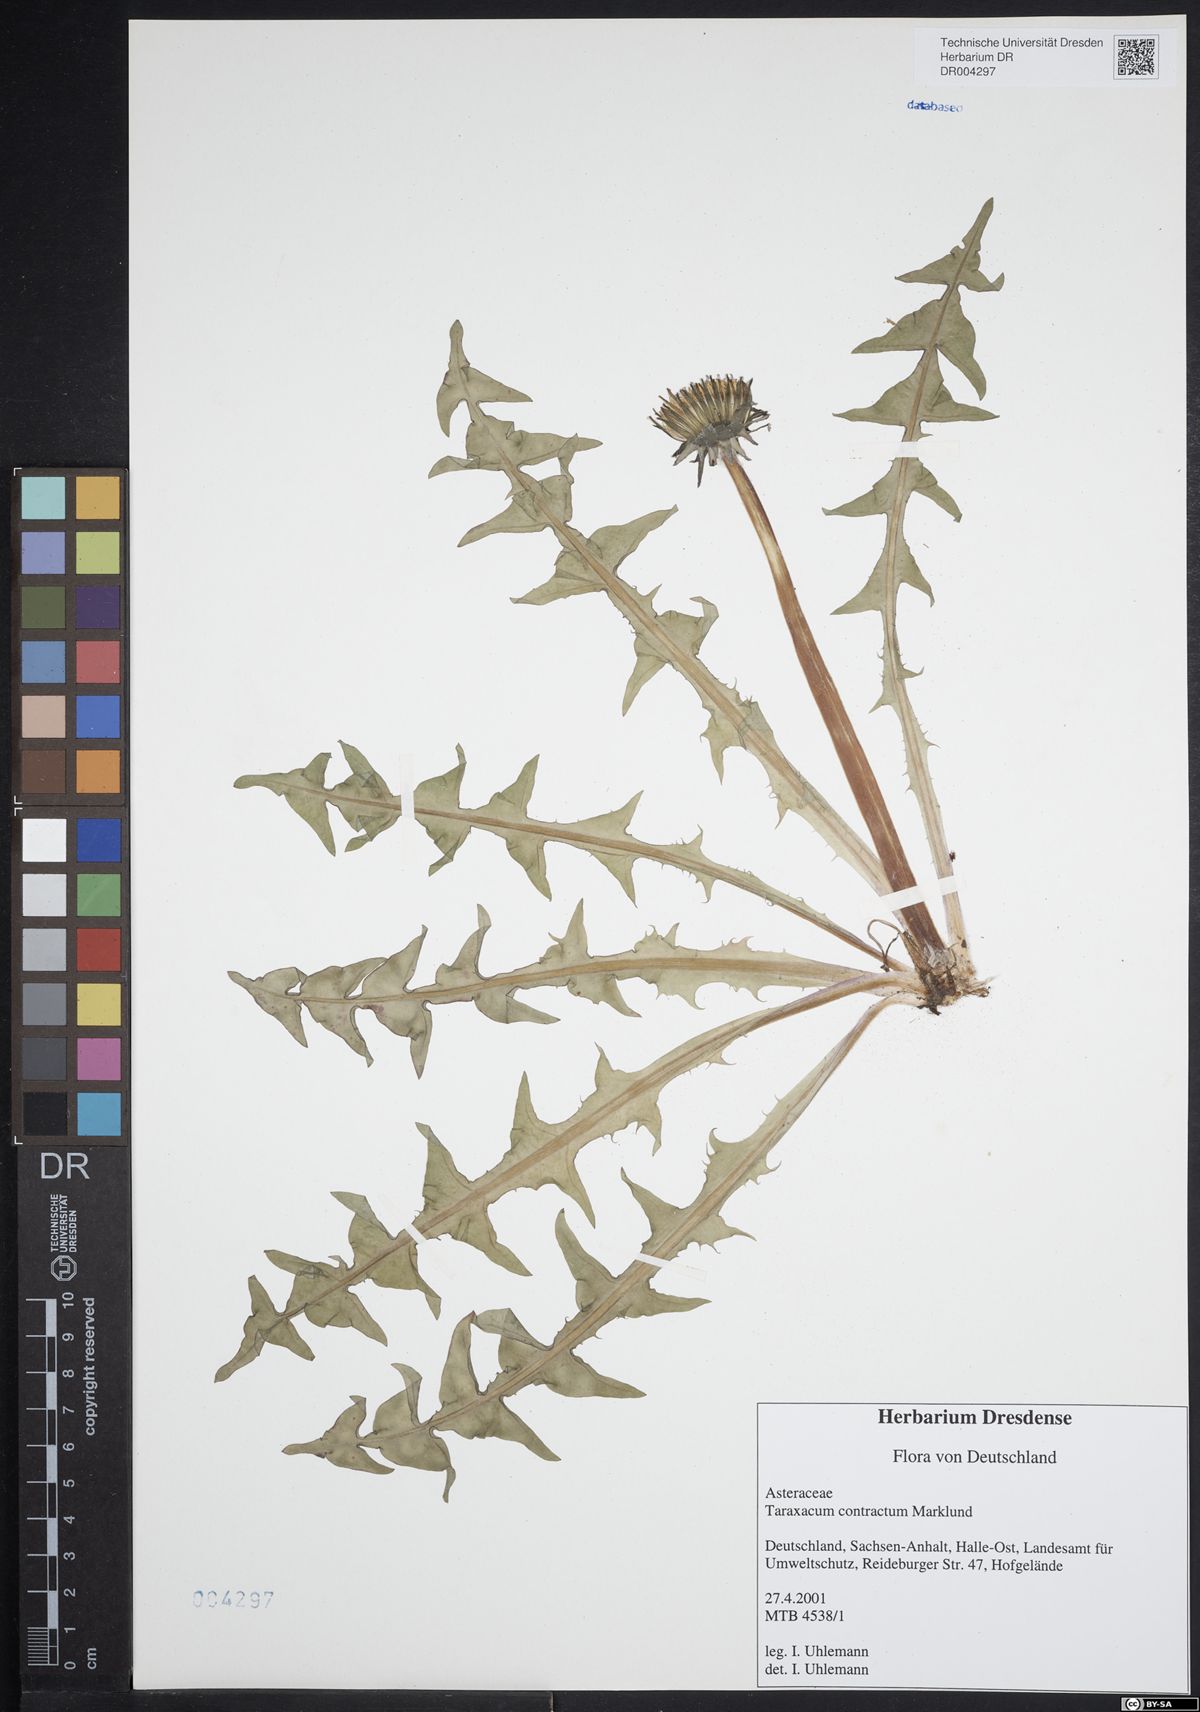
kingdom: Plantae
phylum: Tracheophyta
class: Magnoliopsida
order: Asterales
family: Asteraceae
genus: Taraxacum
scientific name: Taraxacum contractum
